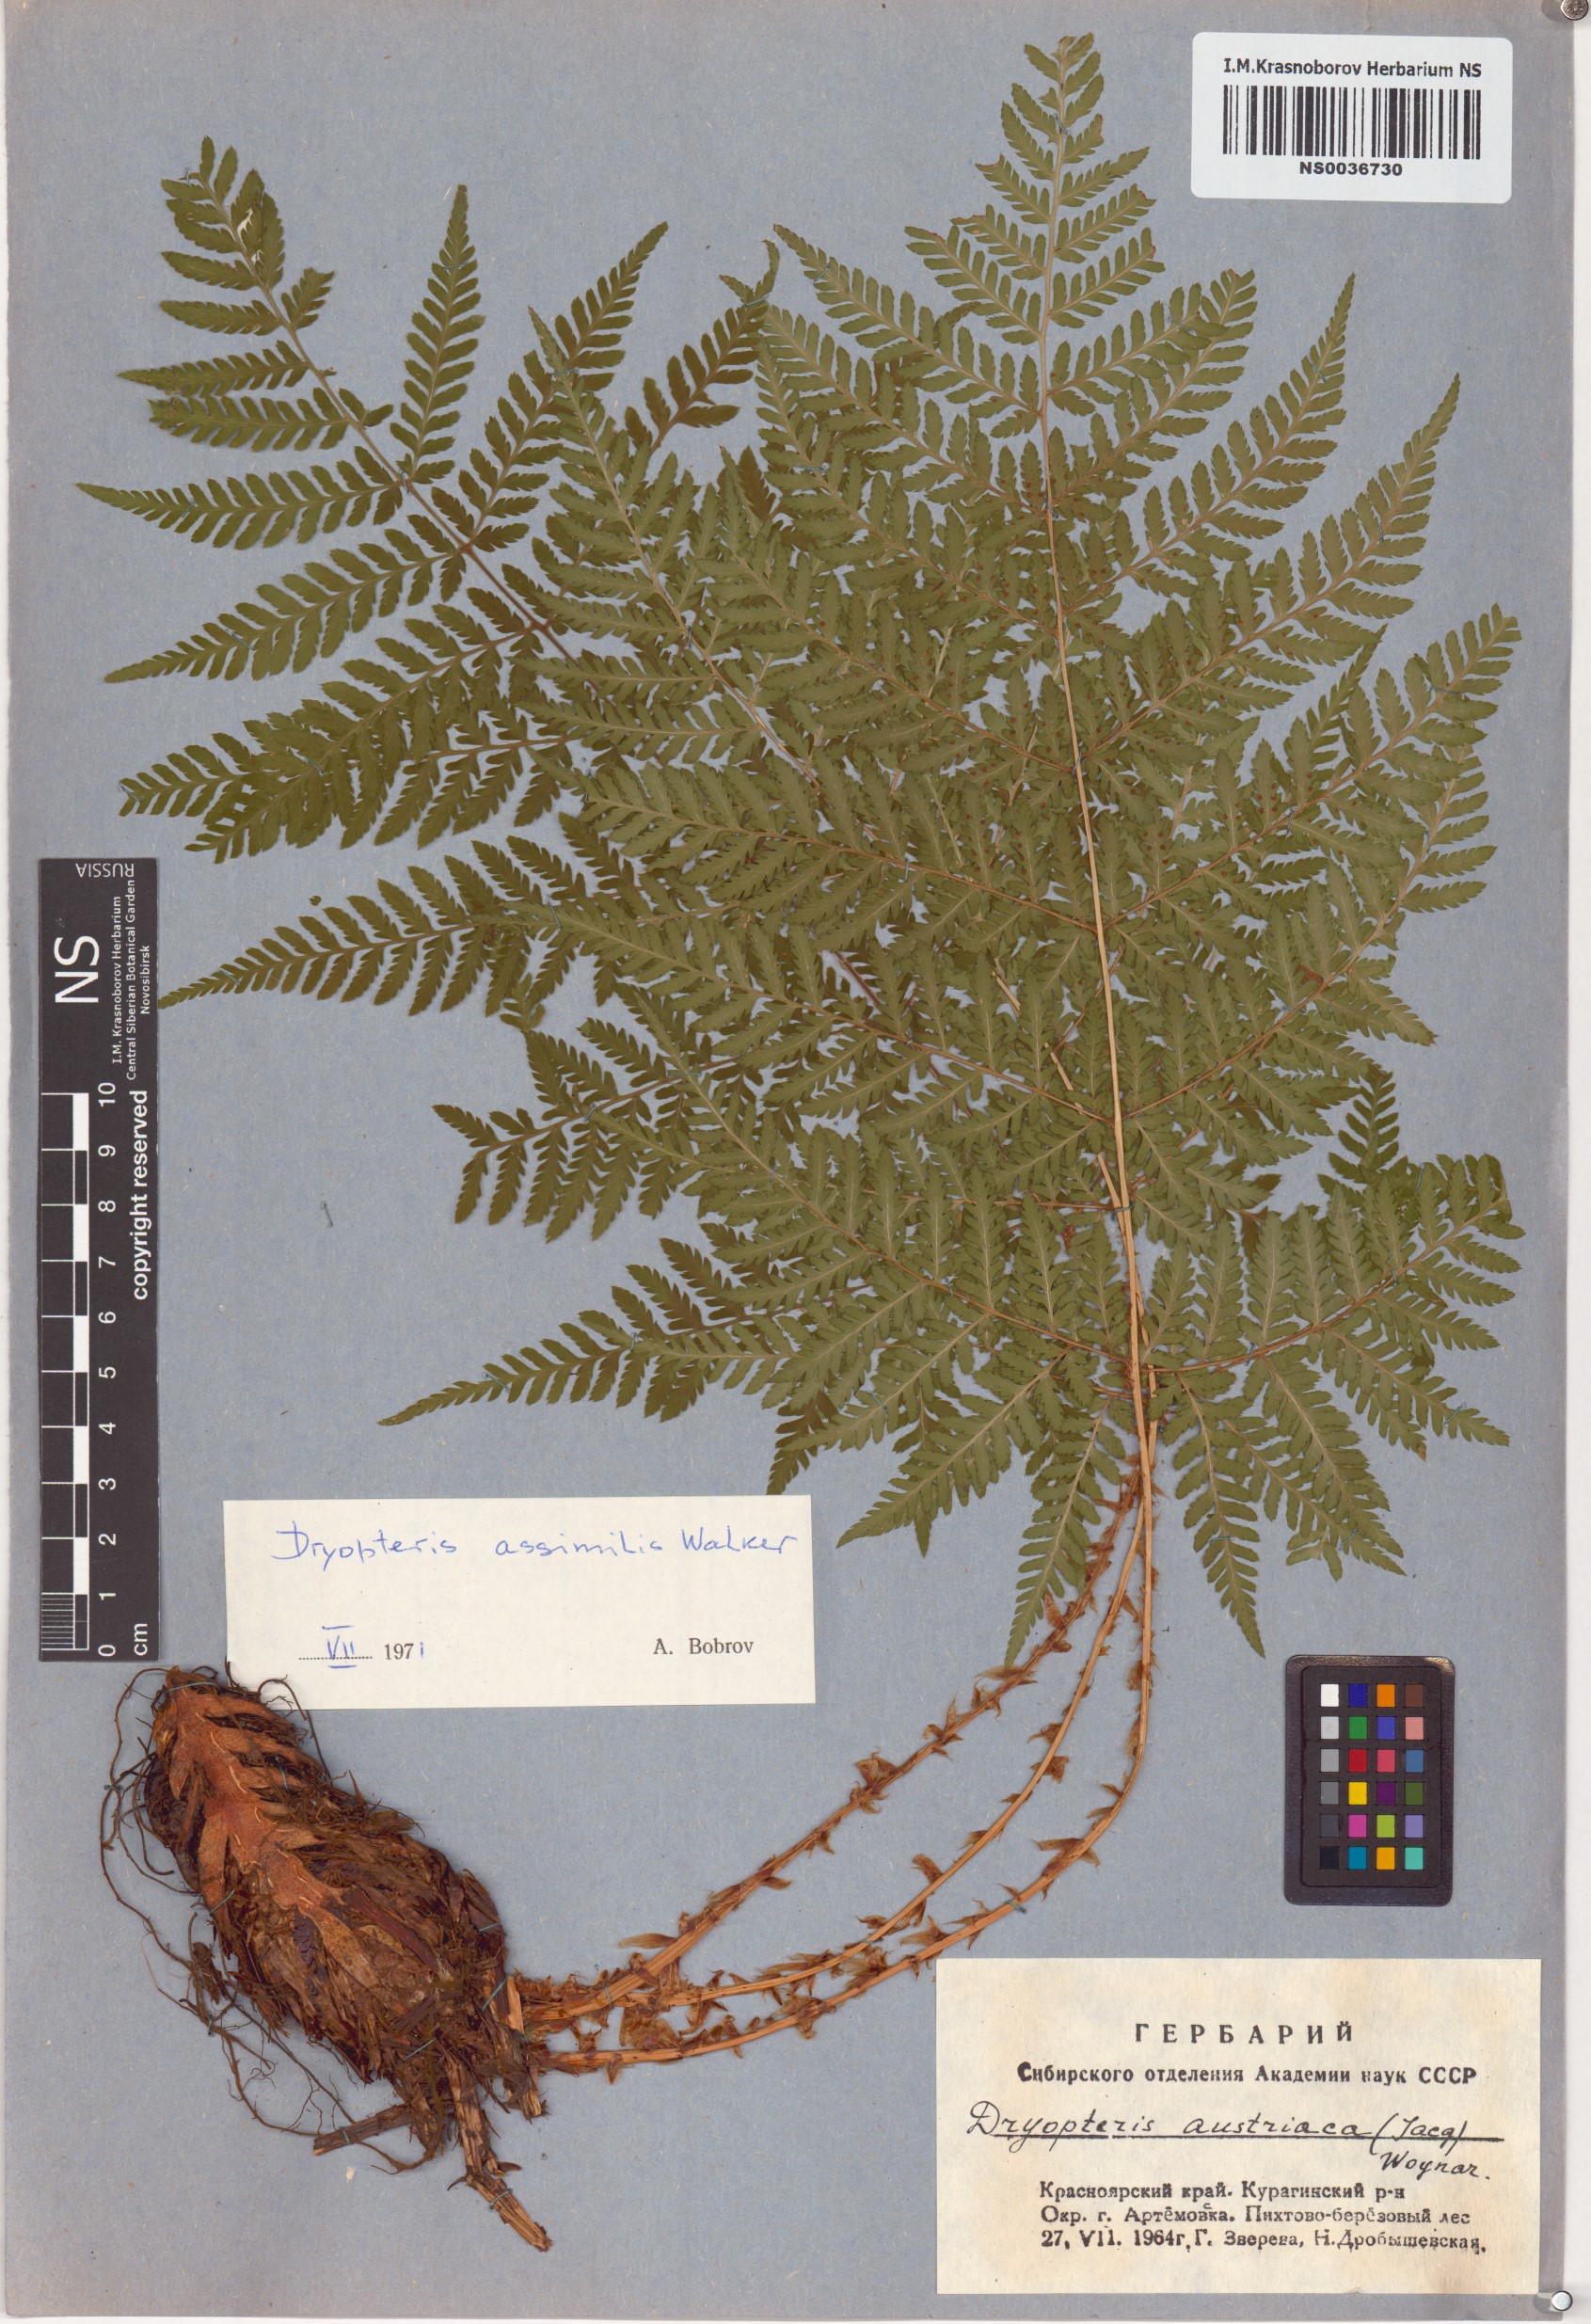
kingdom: Plantae
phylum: Tracheophyta
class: Polypodiopsida
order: Polypodiales
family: Dryopteridaceae
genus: Dryopteris
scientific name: Dryopteris expansa
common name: Northern buckler fern
